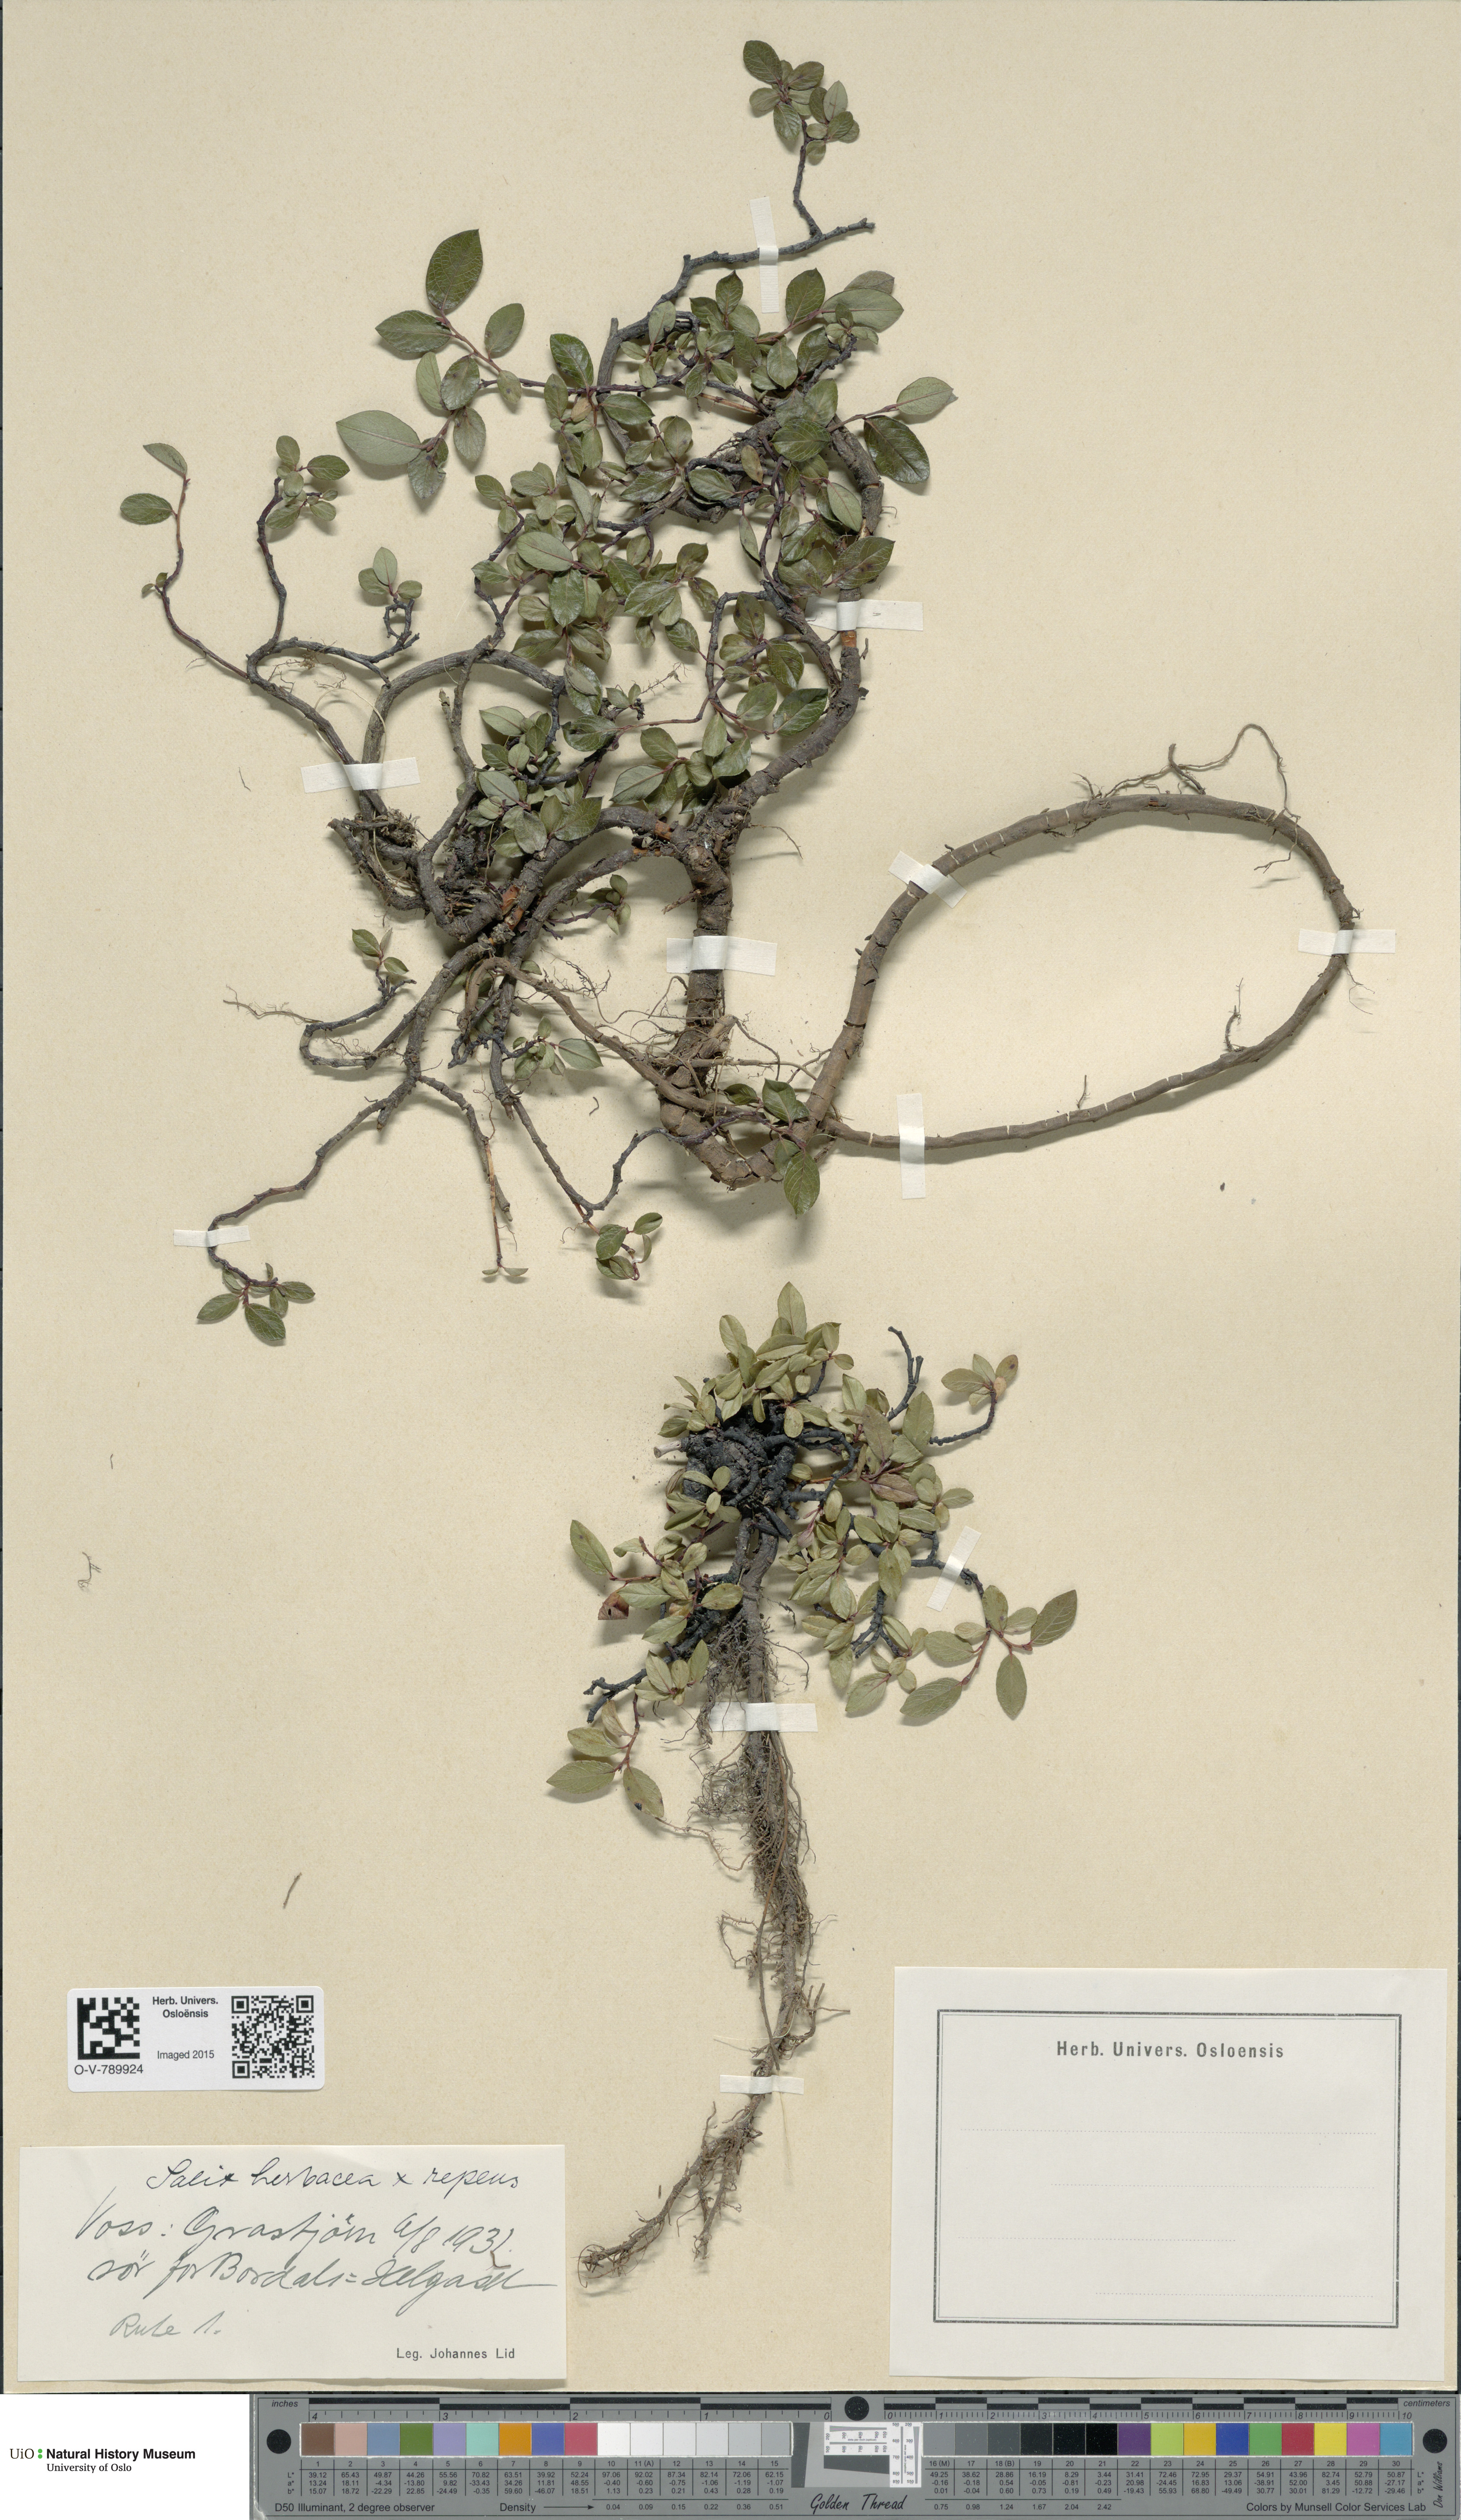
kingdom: Plantae
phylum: Tracheophyta
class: Magnoliopsida
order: Malpighiales
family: Salicaceae
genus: Salix
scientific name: Salix
